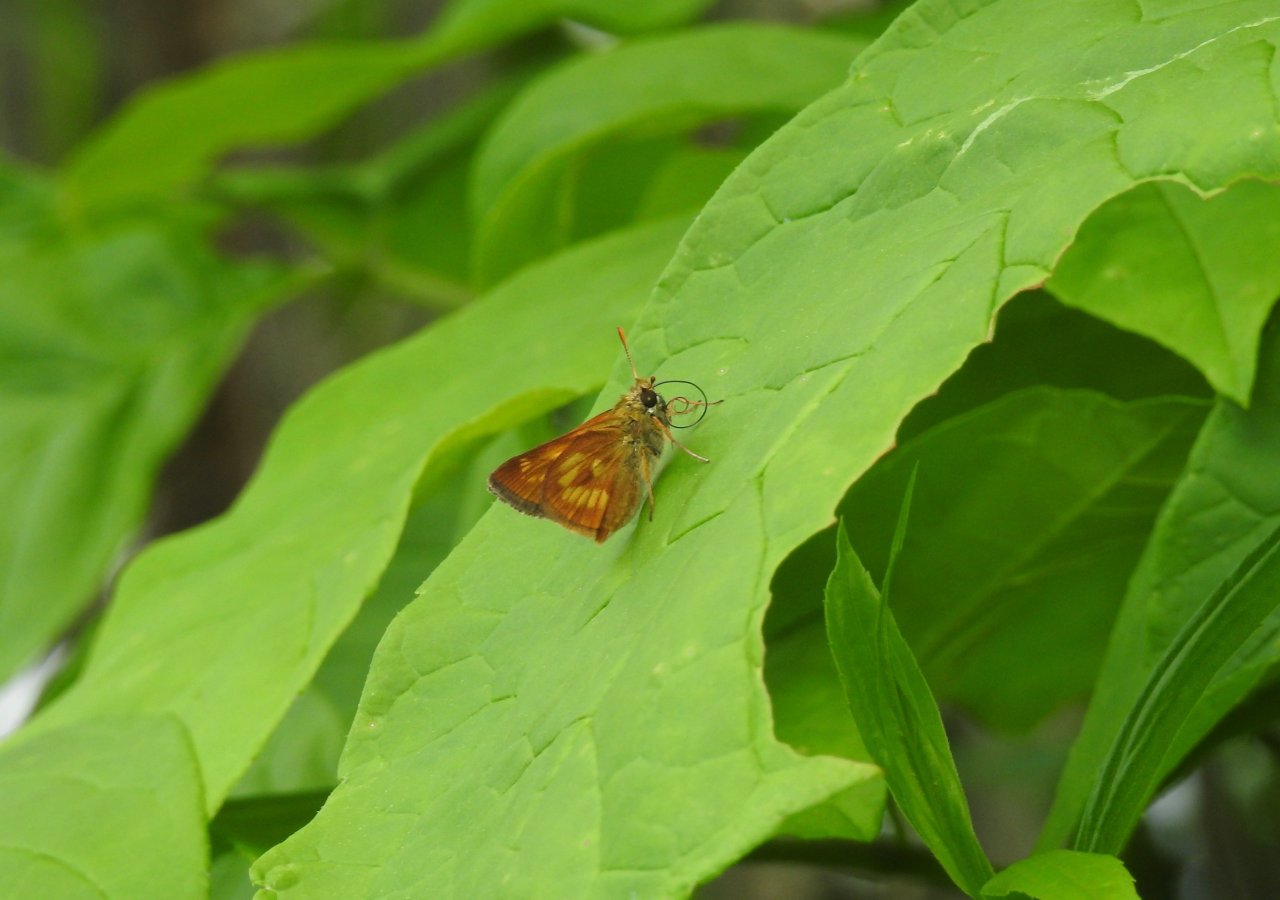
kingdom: Animalia
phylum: Arthropoda
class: Insecta
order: Lepidoptera
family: Hesperiidae
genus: Polites
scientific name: Polites
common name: Long Dash Skipper
